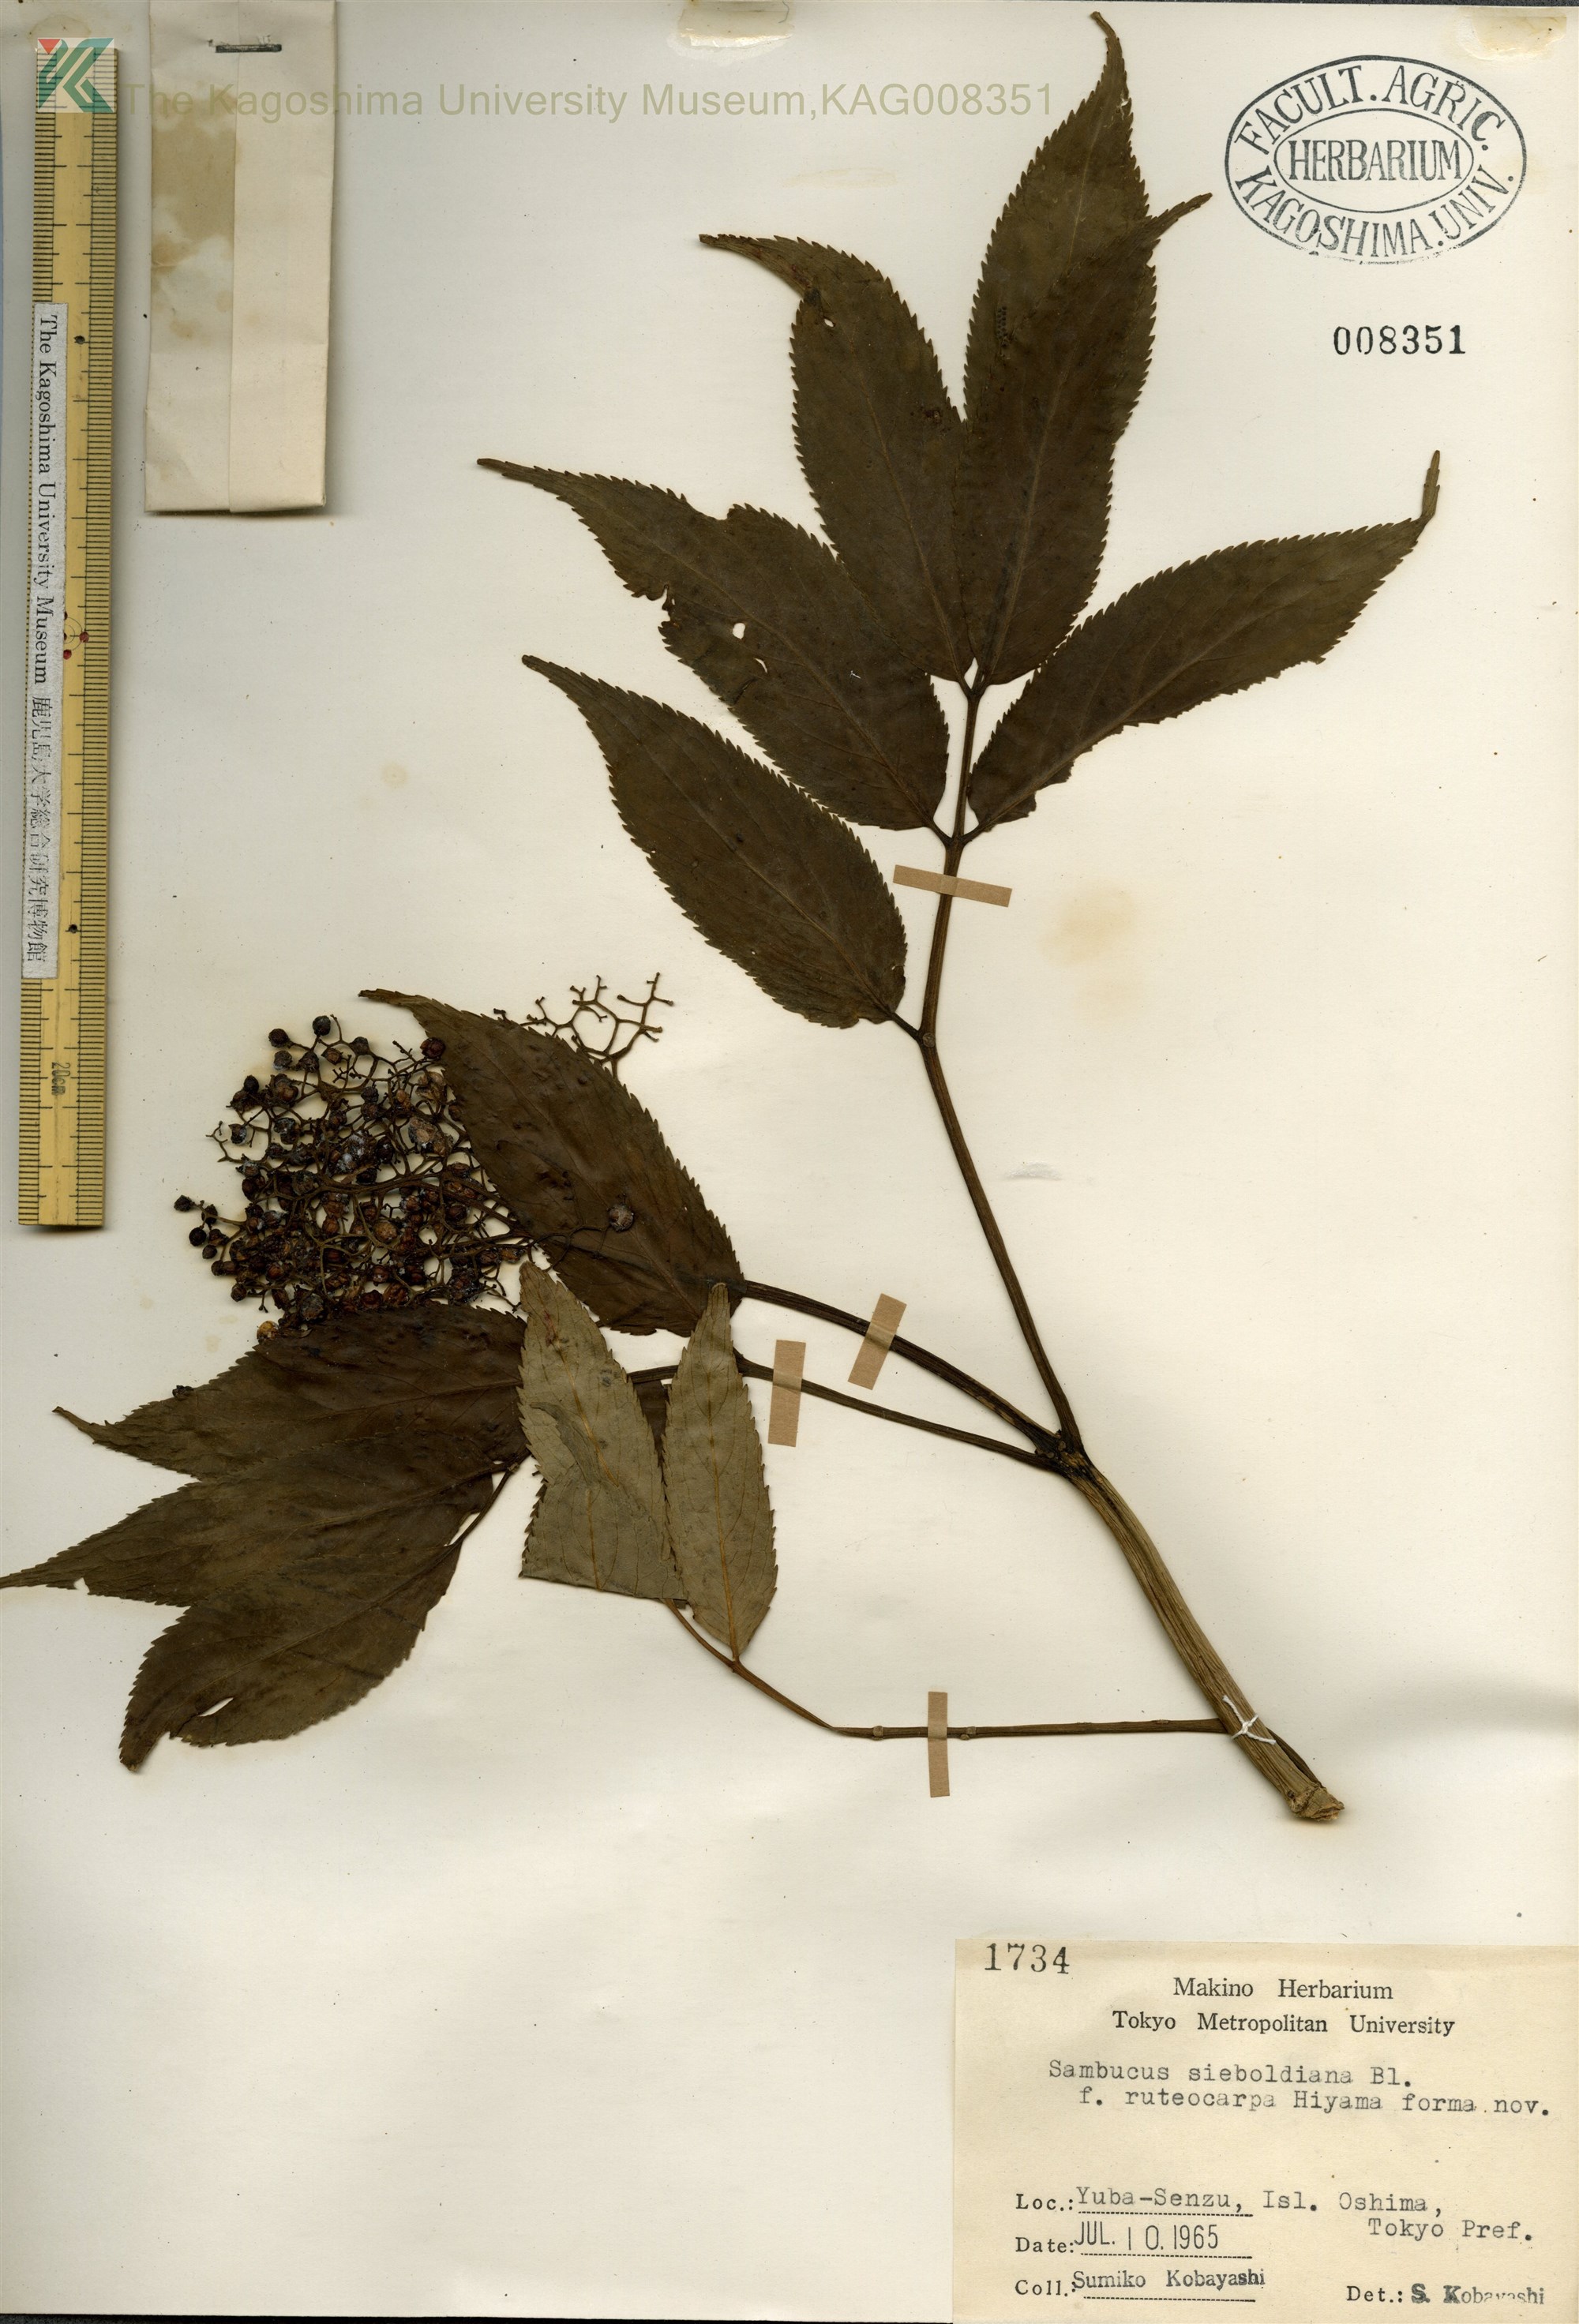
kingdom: Plantae
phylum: Tracheophyta
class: Magnoliopsida
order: Dipsacales
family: Viburnaceae
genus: Sambucus
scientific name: Sambucus sieboldiana
